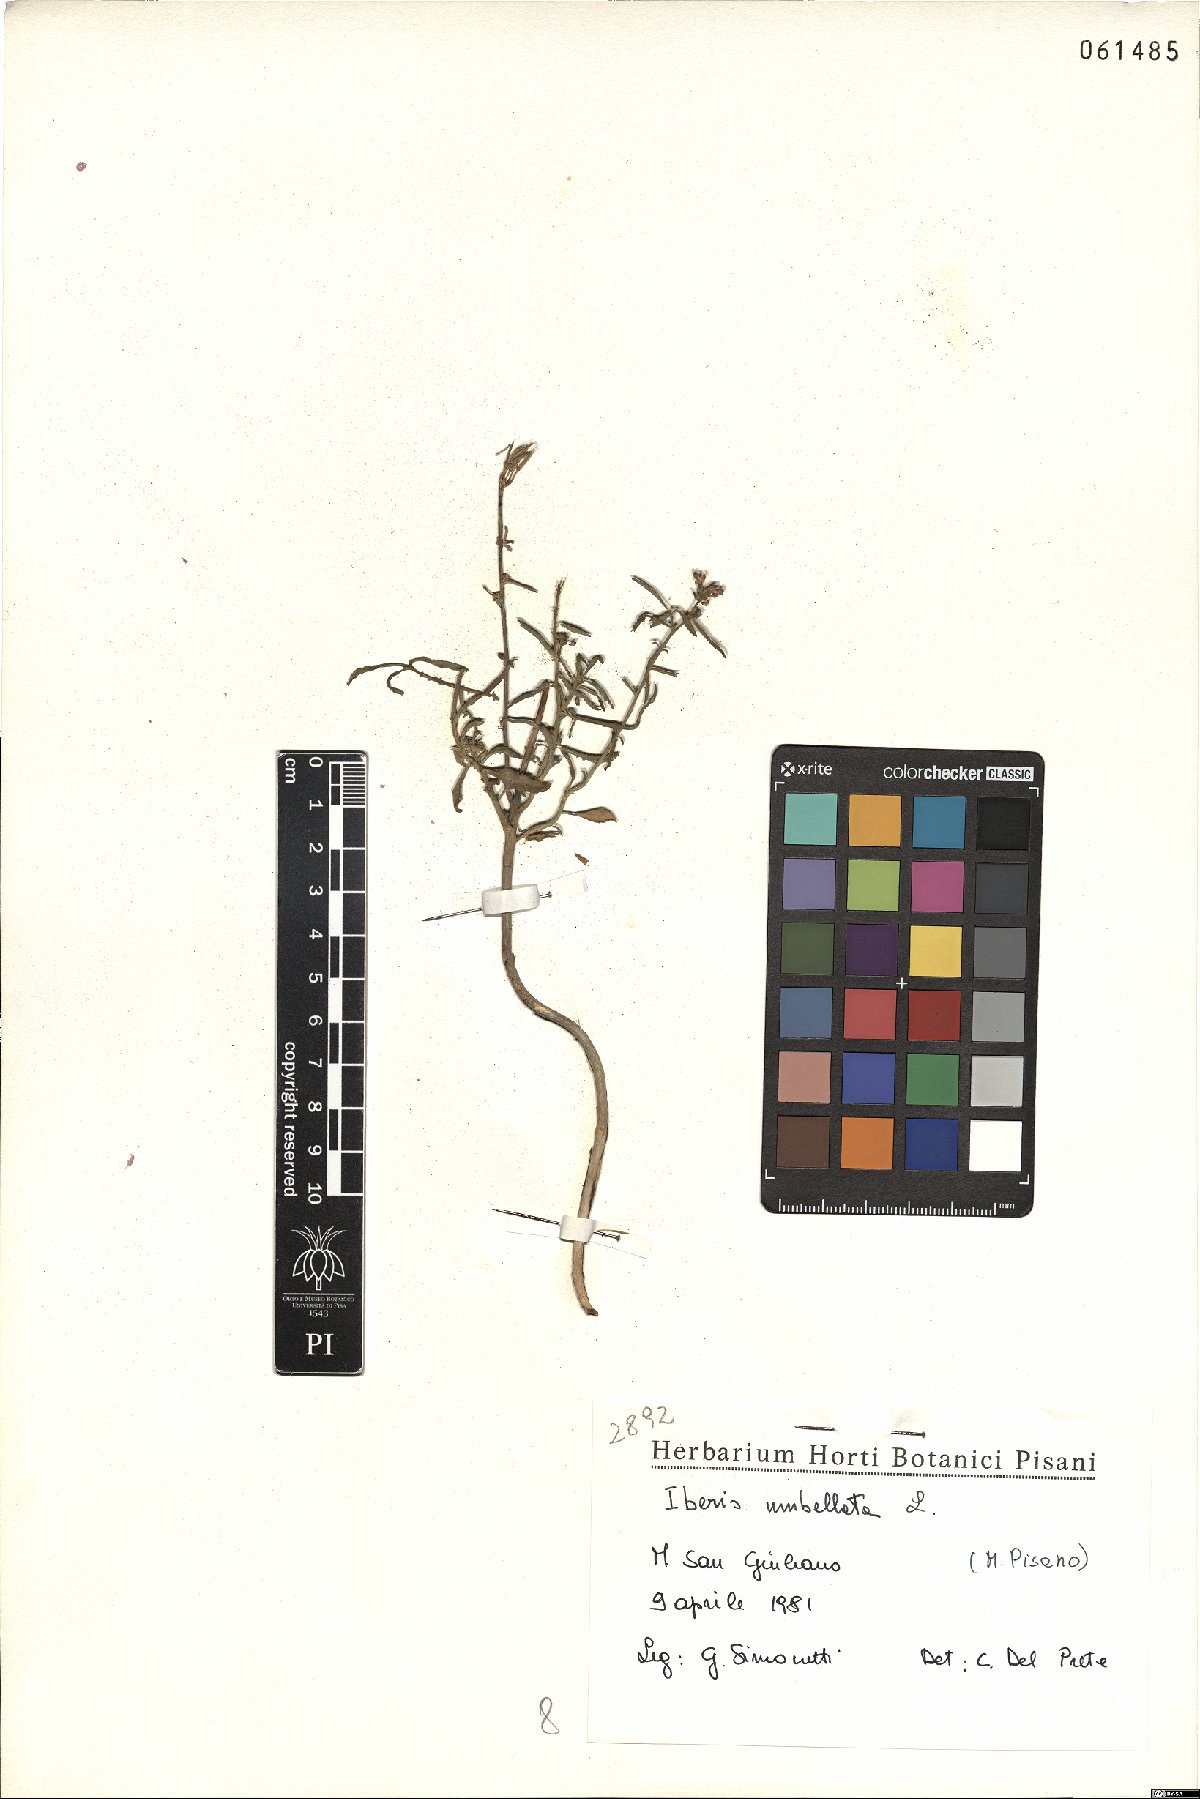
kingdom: Plantae
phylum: Tracheophyta
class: Magnoliopsida
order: Brassicales
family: Brassicaceae
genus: Iberis
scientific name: Iberis umbellata
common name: Globe candytuft
